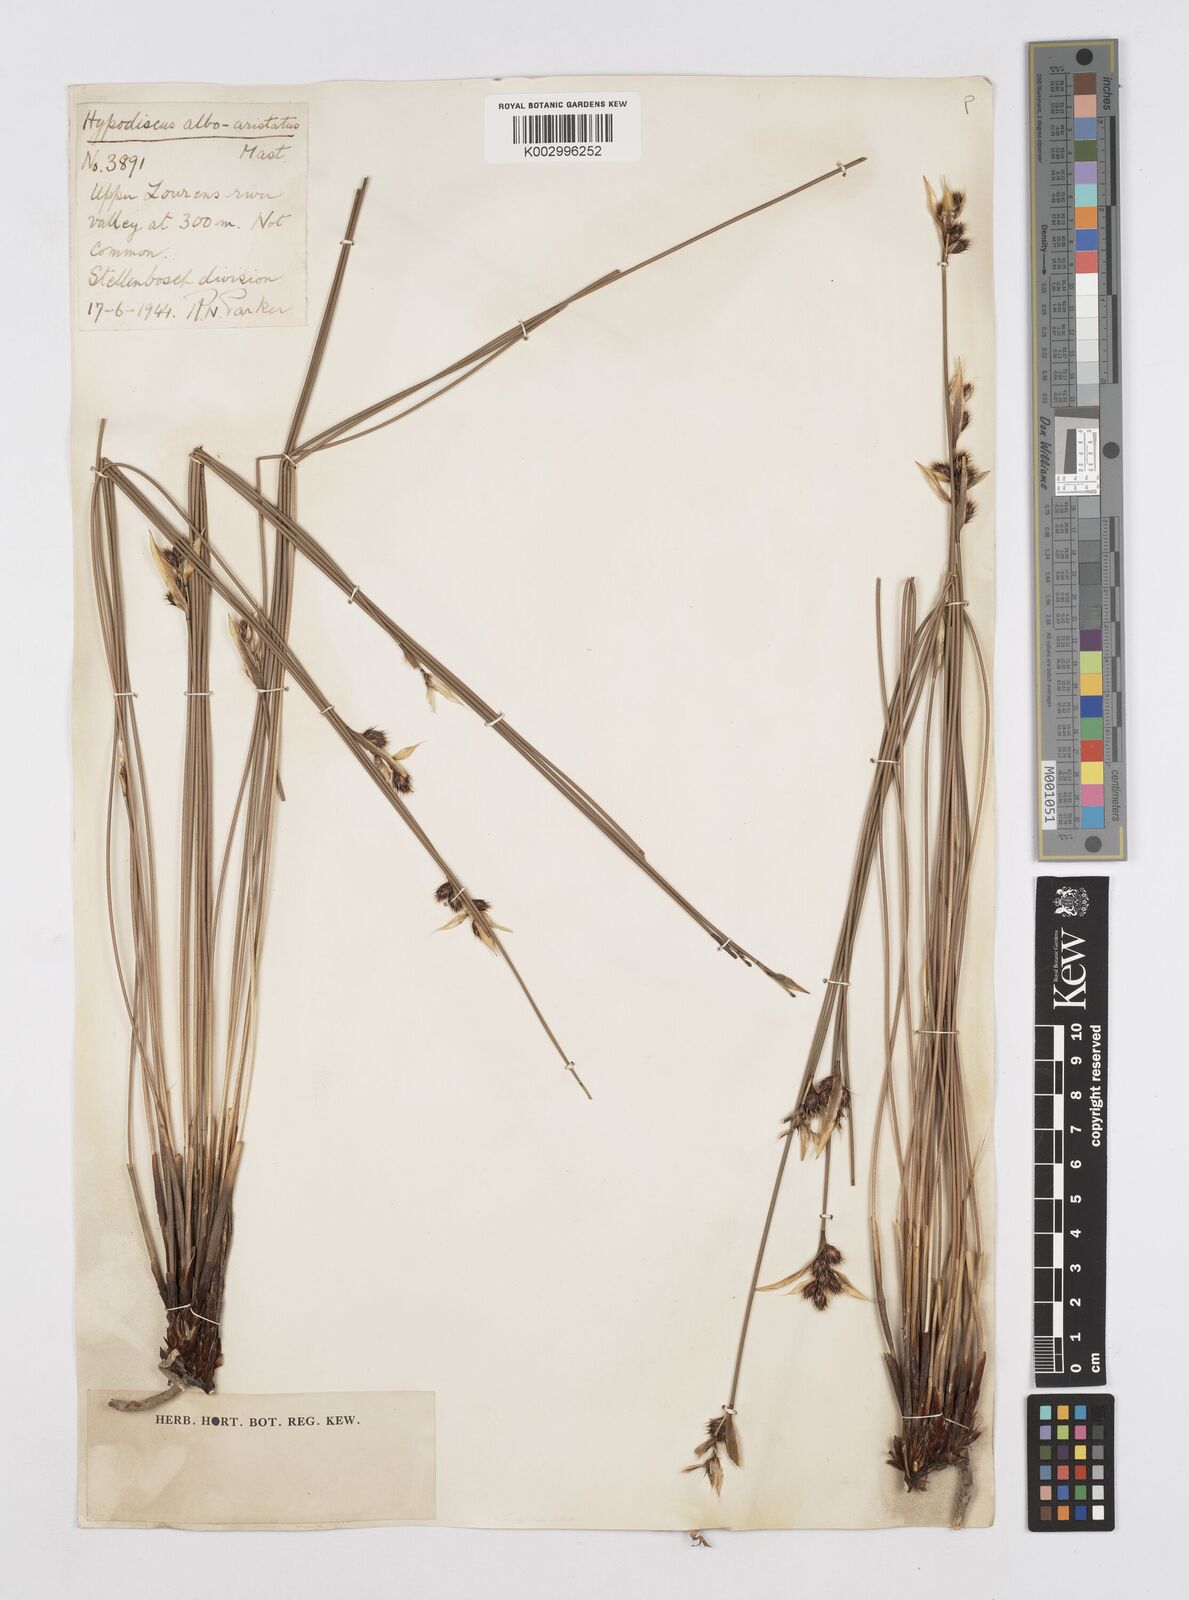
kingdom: Plantae
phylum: Tracheophyta
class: Liliopsida
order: Poales
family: Restionaceae
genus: Hypodiscus
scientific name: Hypodiscus alboaristatus
